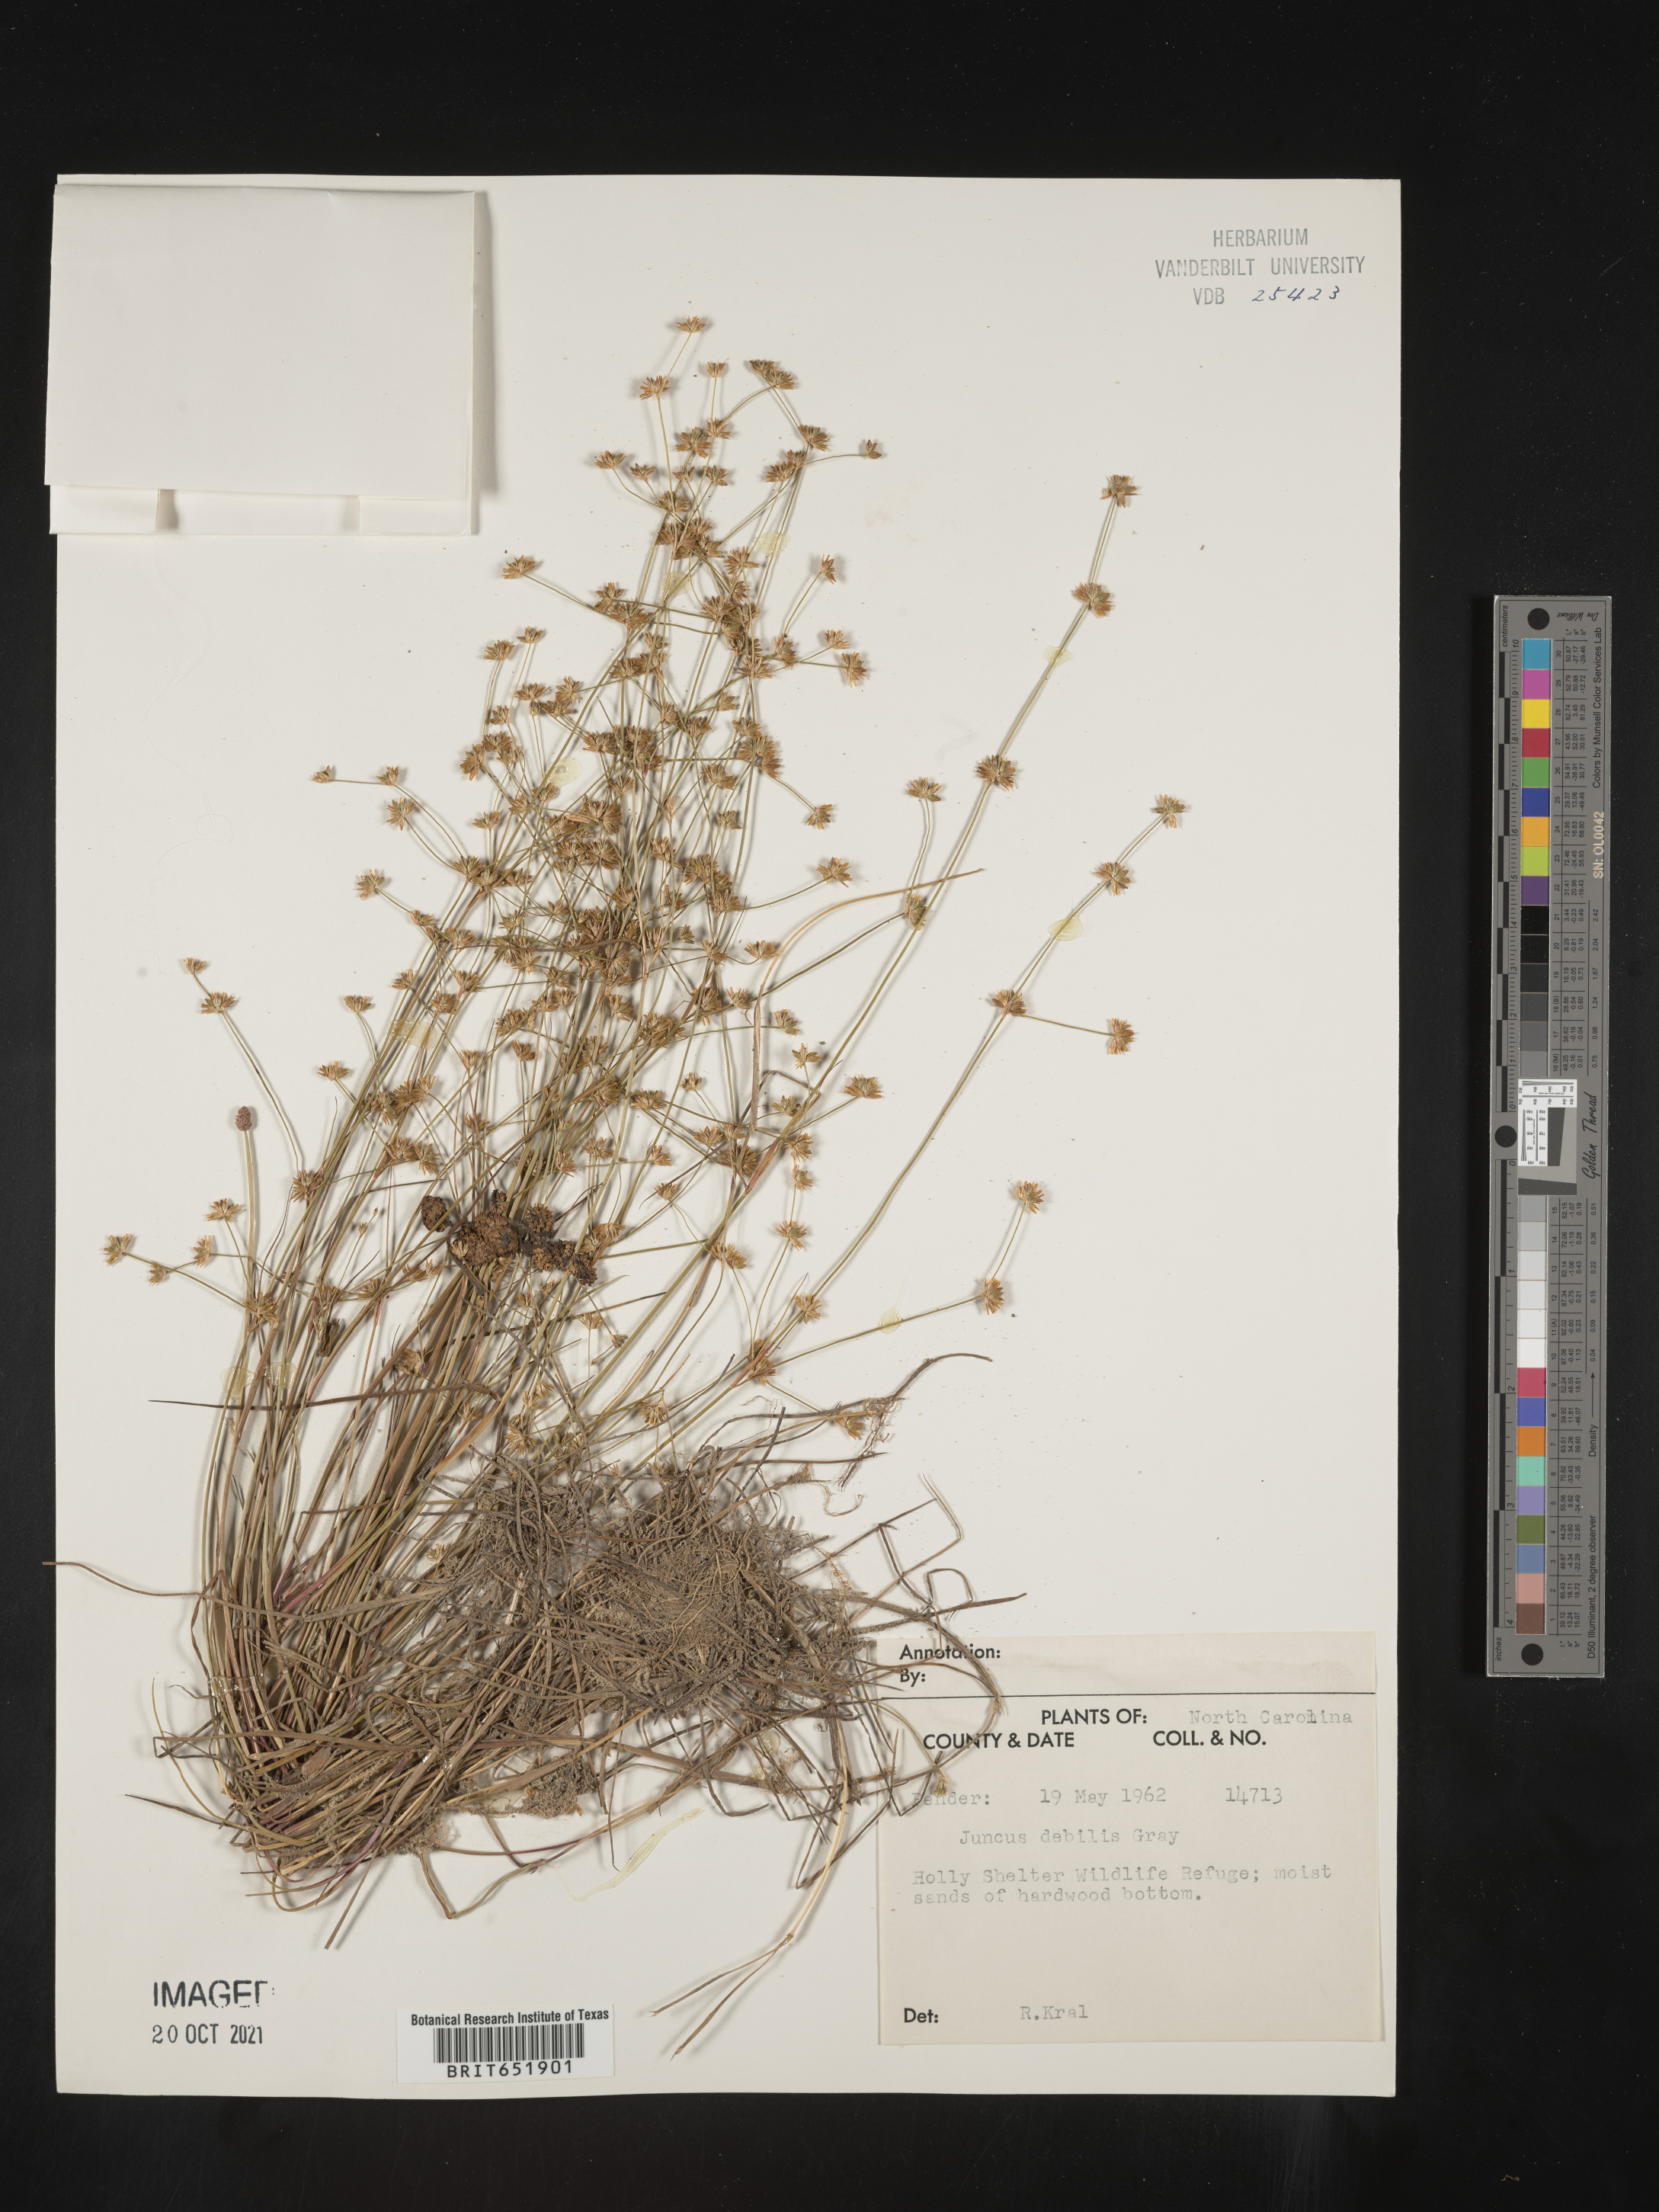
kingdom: Plantae
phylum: Tracheophyta
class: Liliopsida
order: Poales
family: Juncaceae
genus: Juncus
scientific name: Juncus debilis
